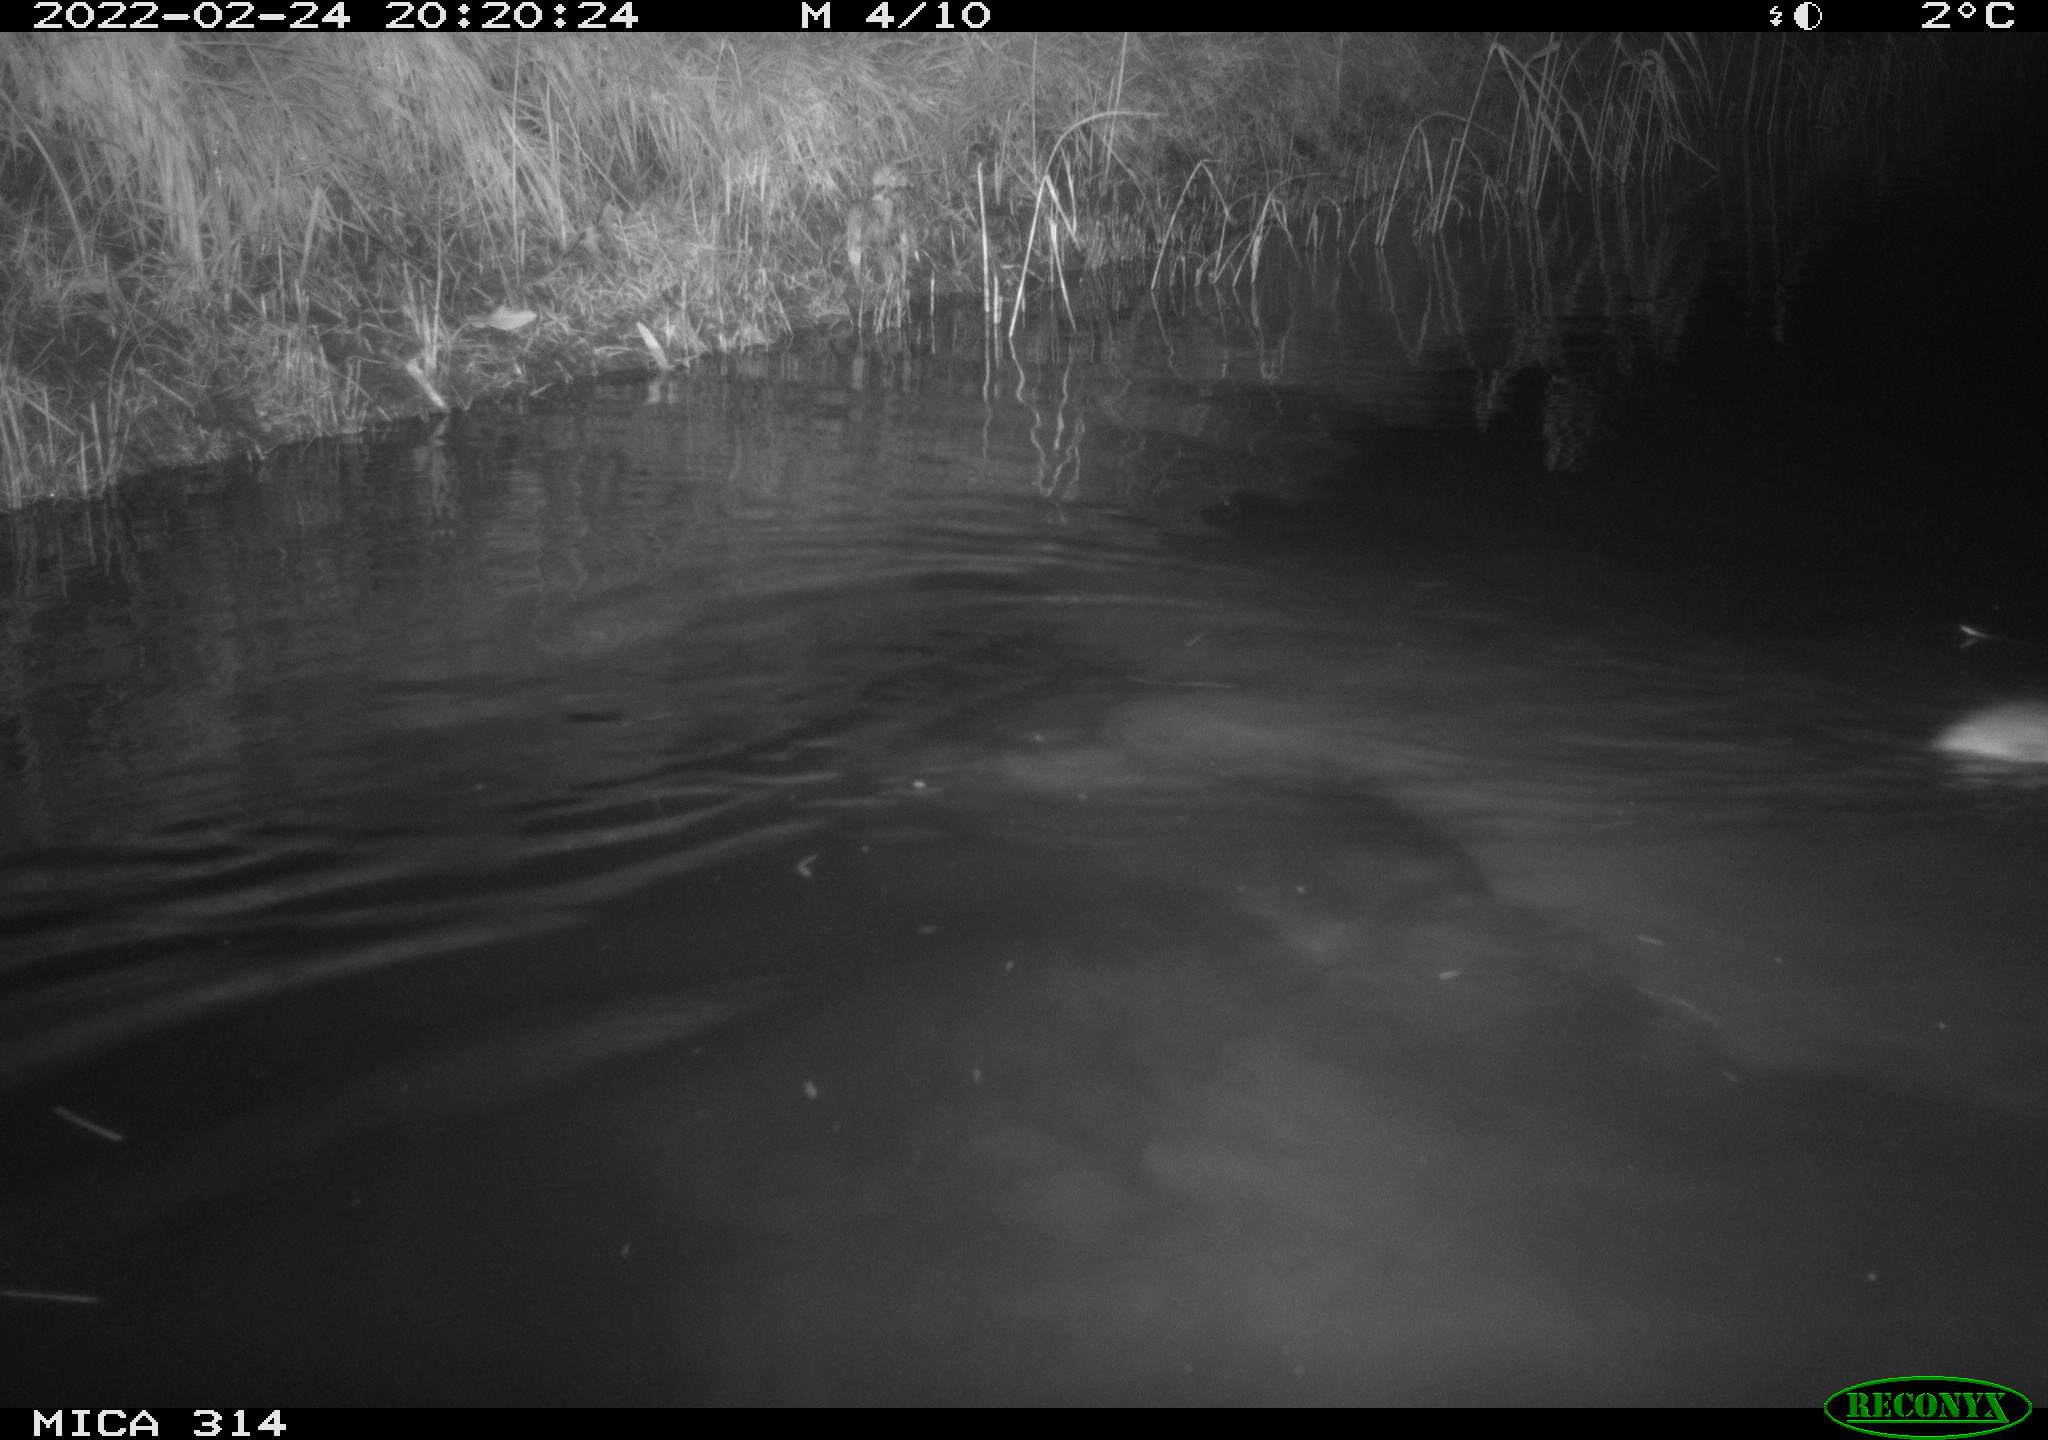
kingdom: Animalia
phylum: Chordata
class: Mammalia
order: Rodentia
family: Muridae
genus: Rattus
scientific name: Rattus norvegicus
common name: Brown rat
